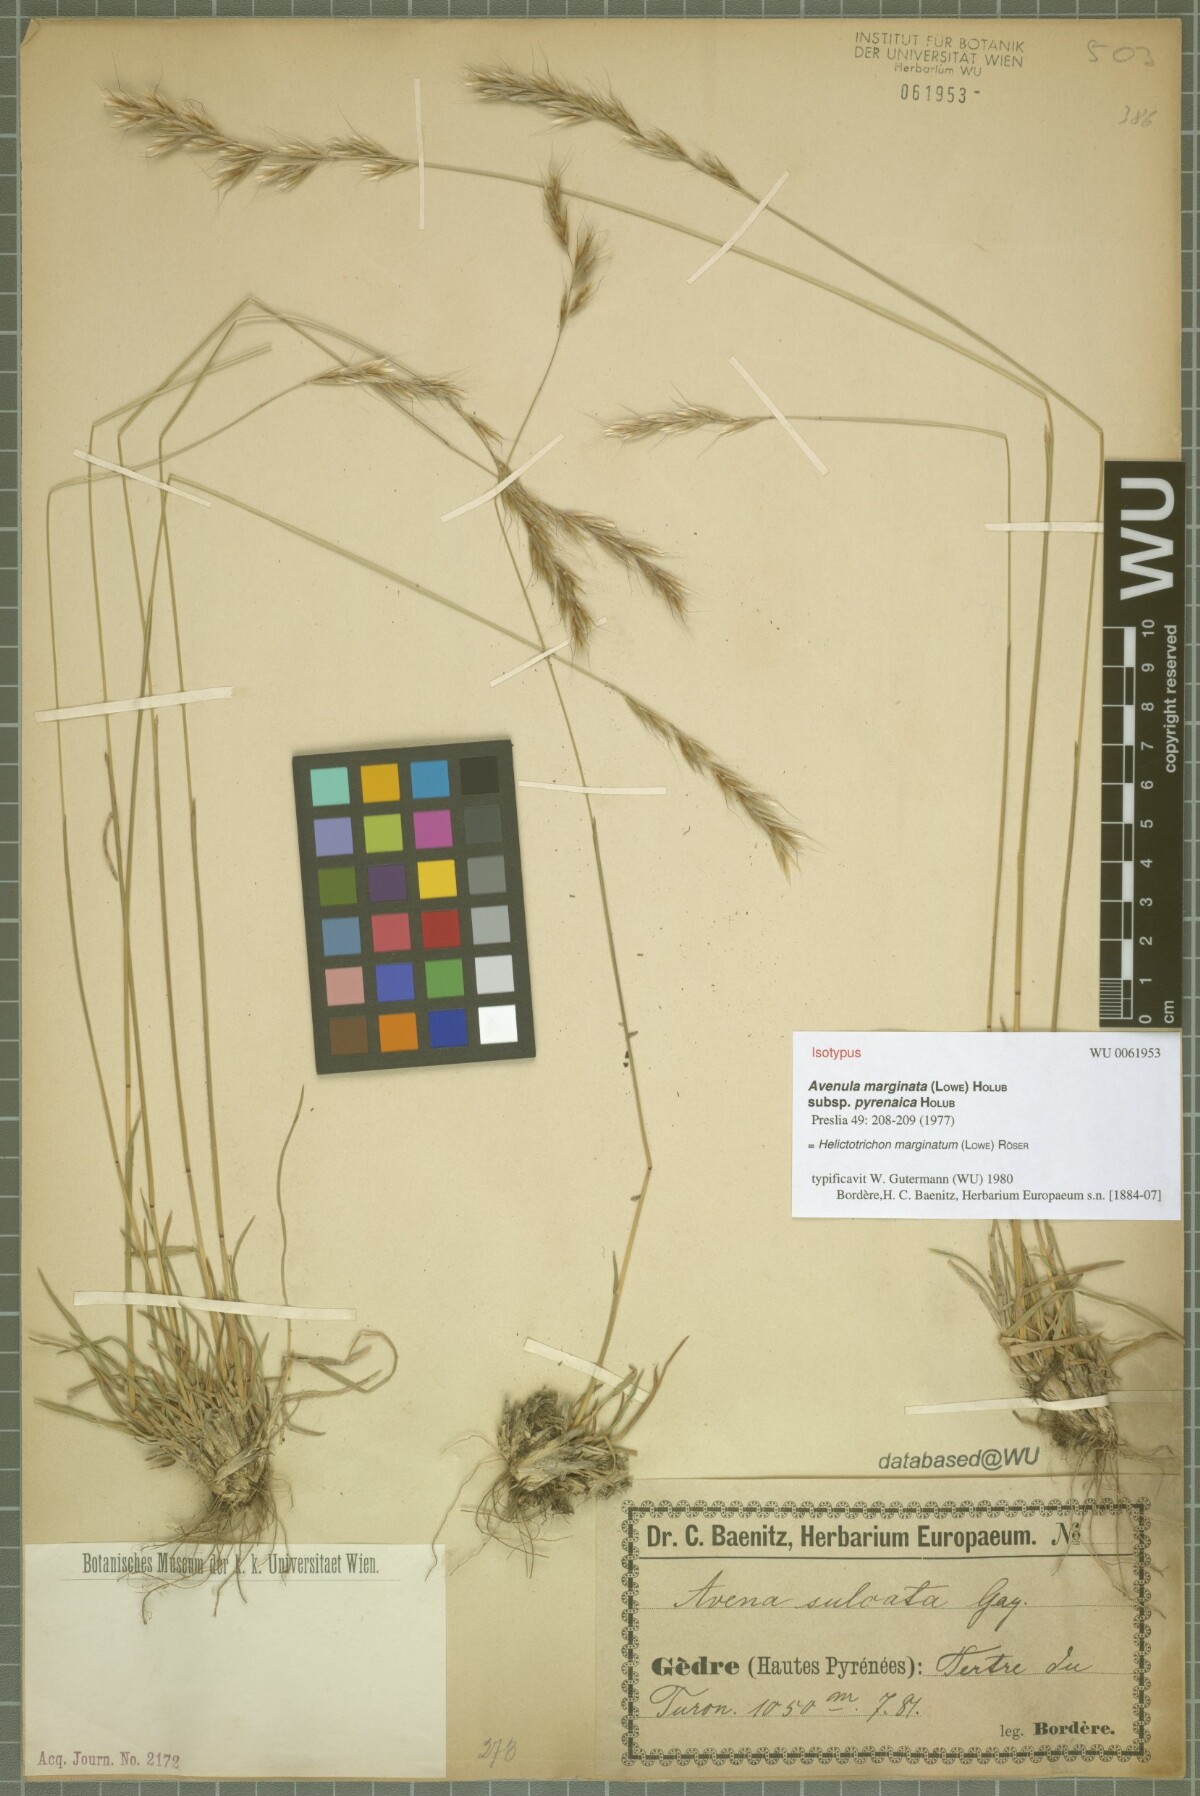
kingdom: Plantae
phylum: Tracheophyta
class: Liliopsida
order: Poales
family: Poaceae
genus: Helictochloa
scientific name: Helictochloa marginata
